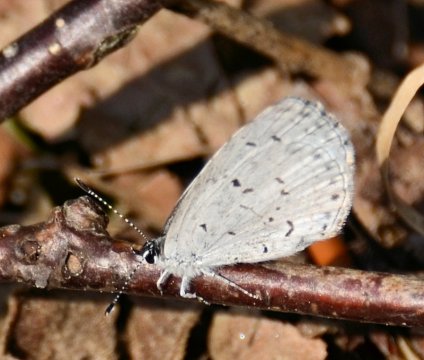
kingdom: Animalia
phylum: Arthropoda
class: Insecta
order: Lepidoptera
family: Lycaenidae
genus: Celastrina
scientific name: Celastrina neglectamajor
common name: Appalachian Azure
